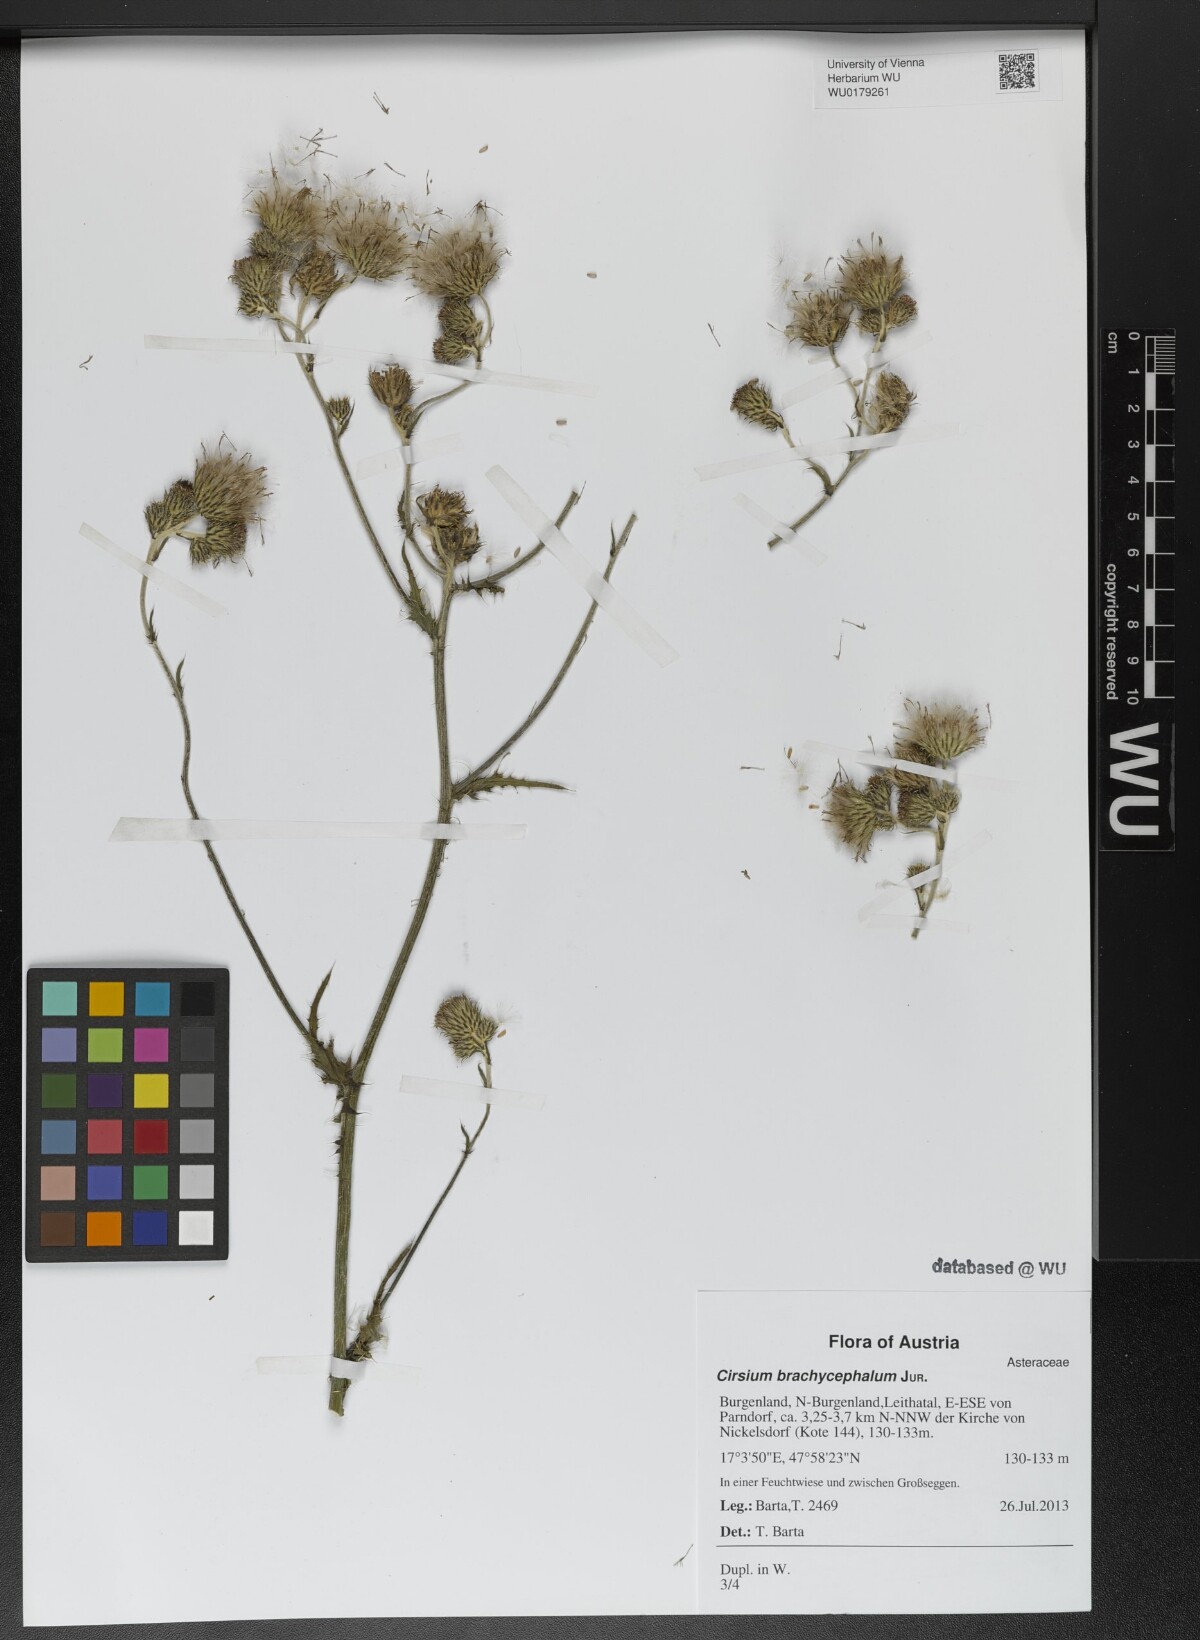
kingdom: Plantae
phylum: Tracheophyta
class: Magnoliopsida
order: Asterales
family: Asteraceae
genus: Cirsium
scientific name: Cirsium brachycephalum
